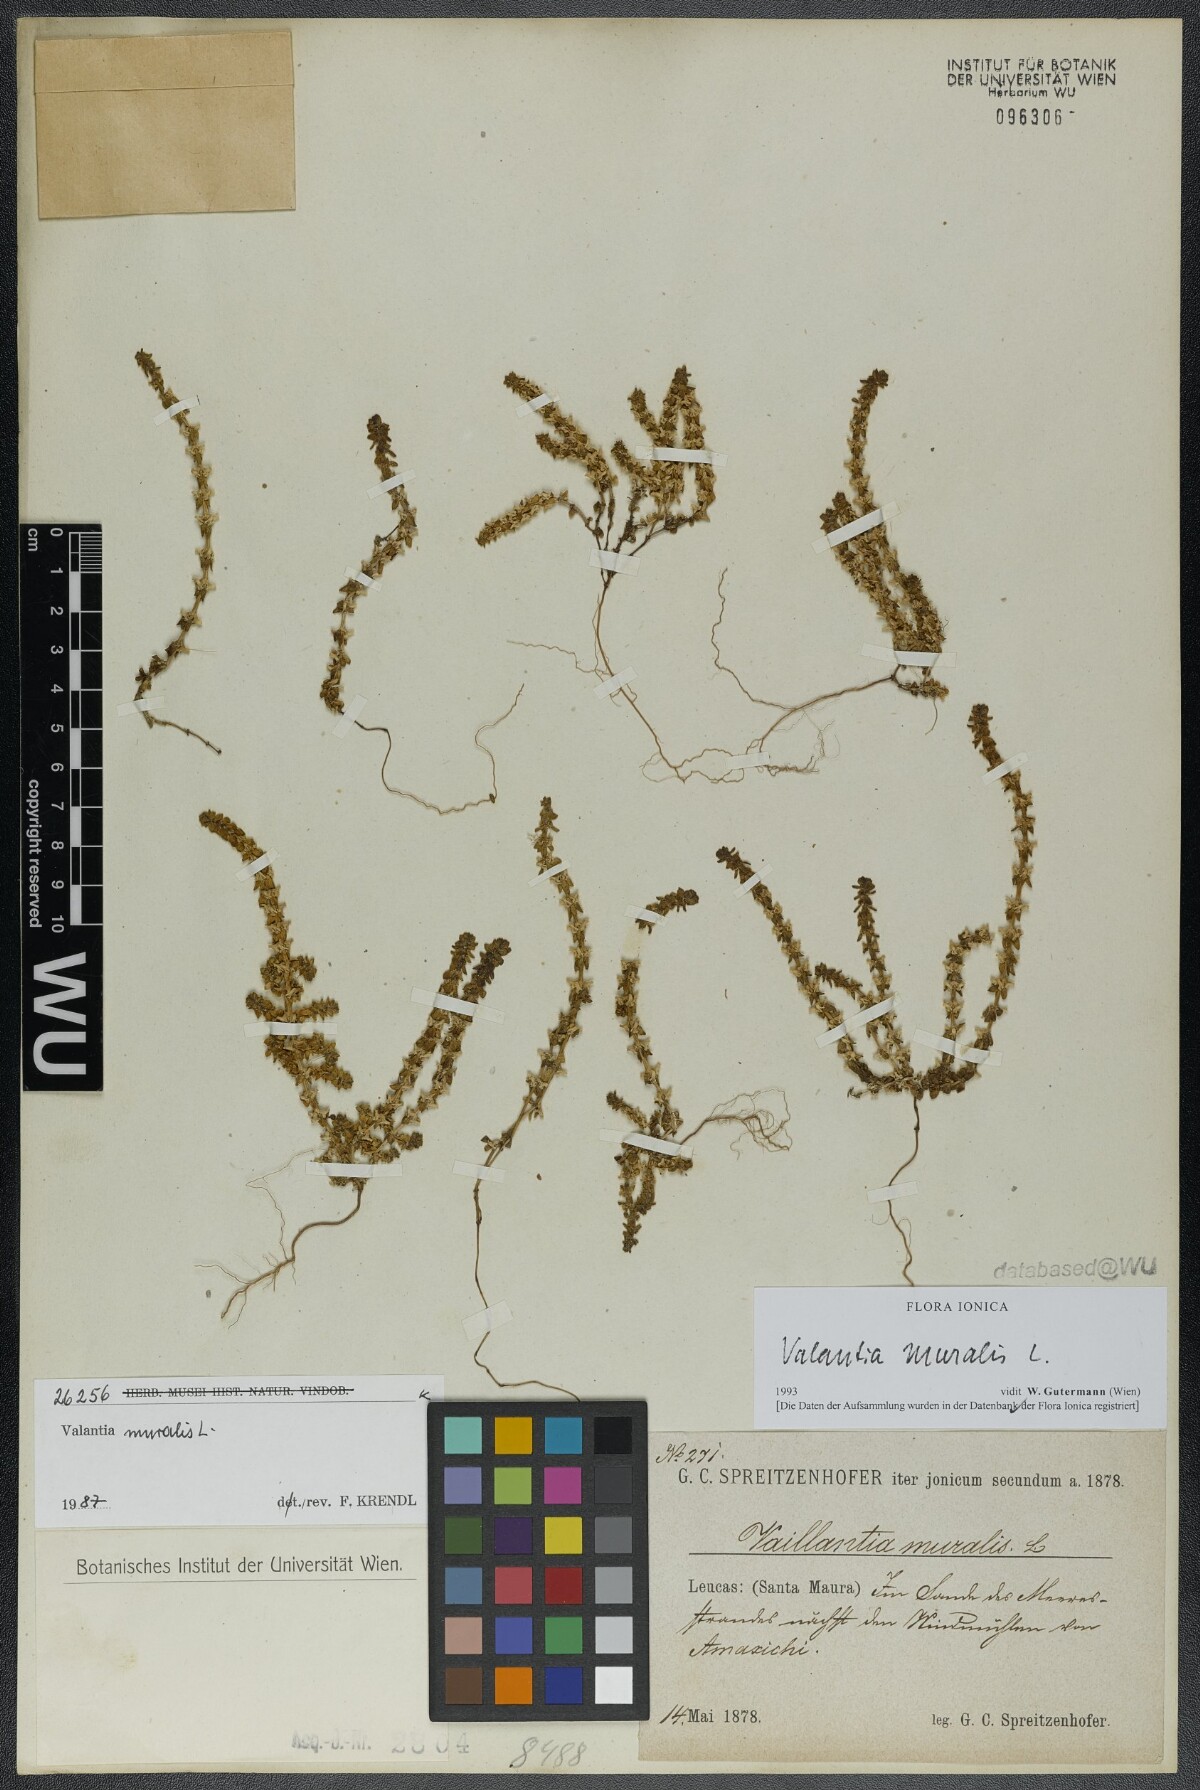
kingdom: Plantae
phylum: Tracheophyta
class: Magnoliopsida
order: Gentianales
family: Rubiaceae
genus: Valantia
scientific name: Valantia muralis
